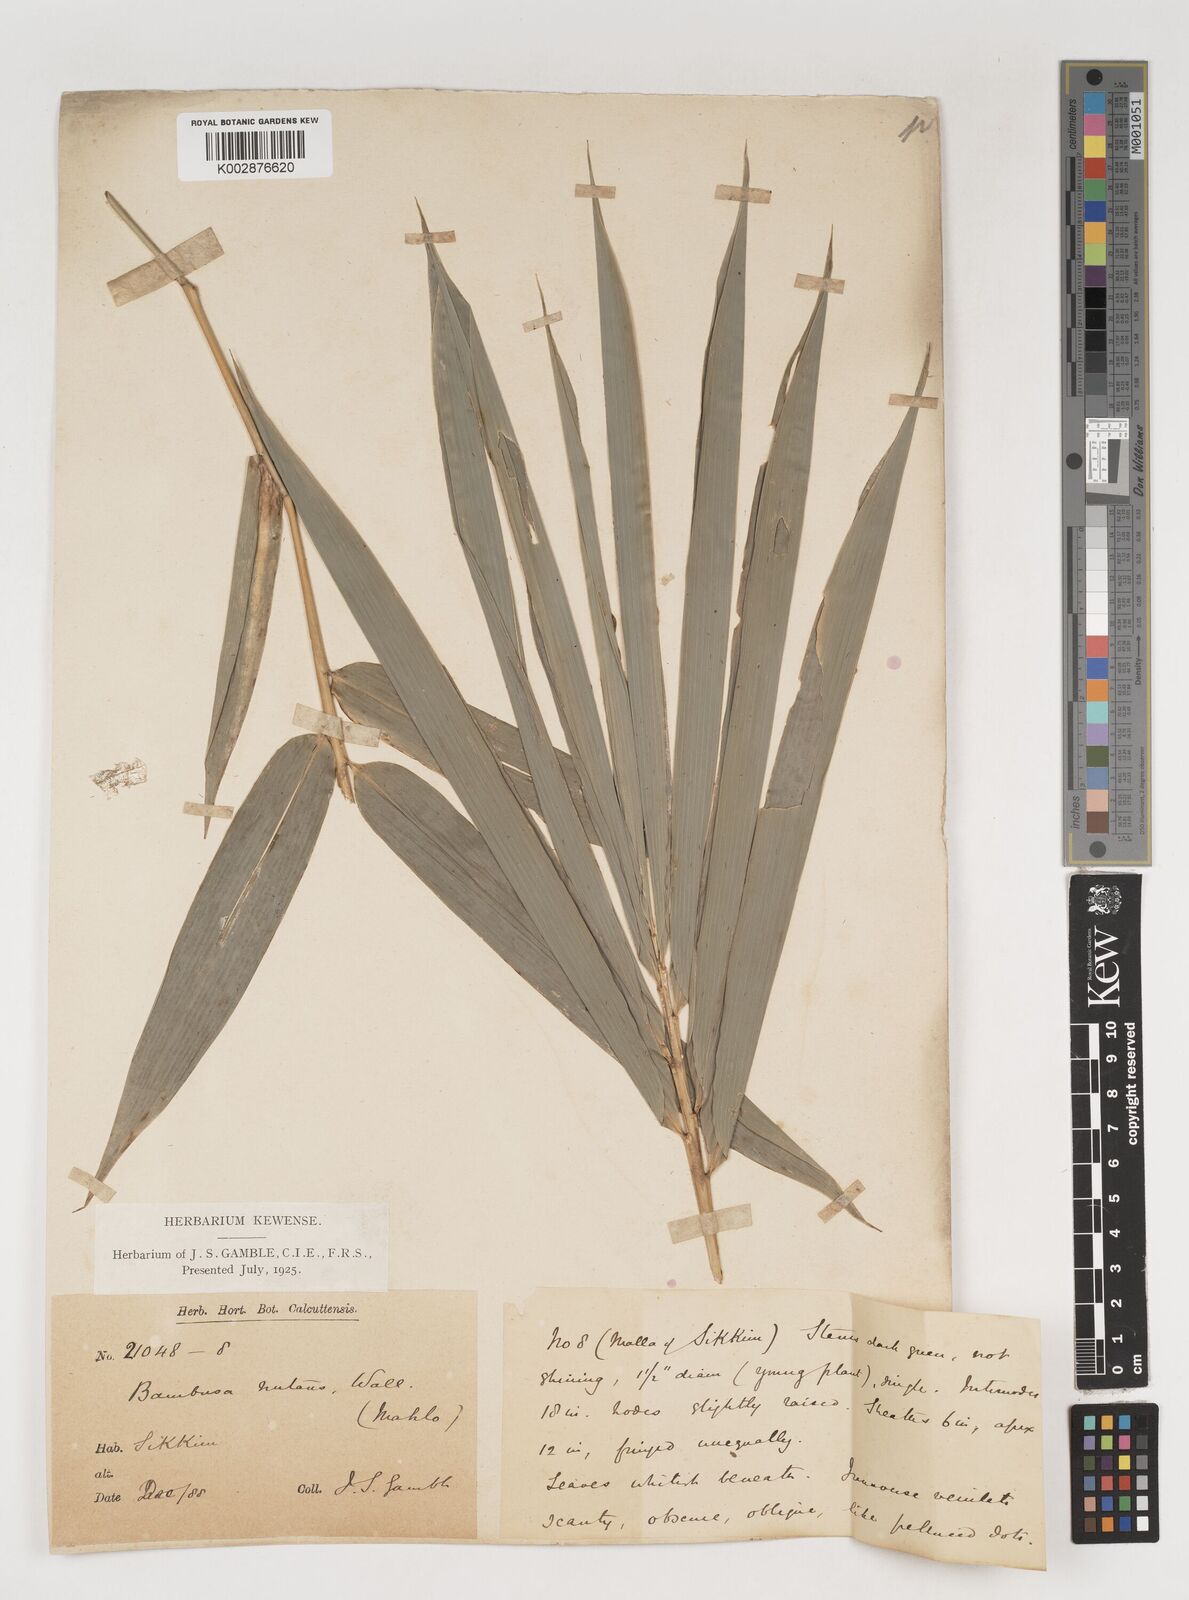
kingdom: Plantae
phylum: Tracheophyta
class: Liliopsida
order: Poales
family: Poaceae
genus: Bambusa
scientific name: Bambusa nutans
